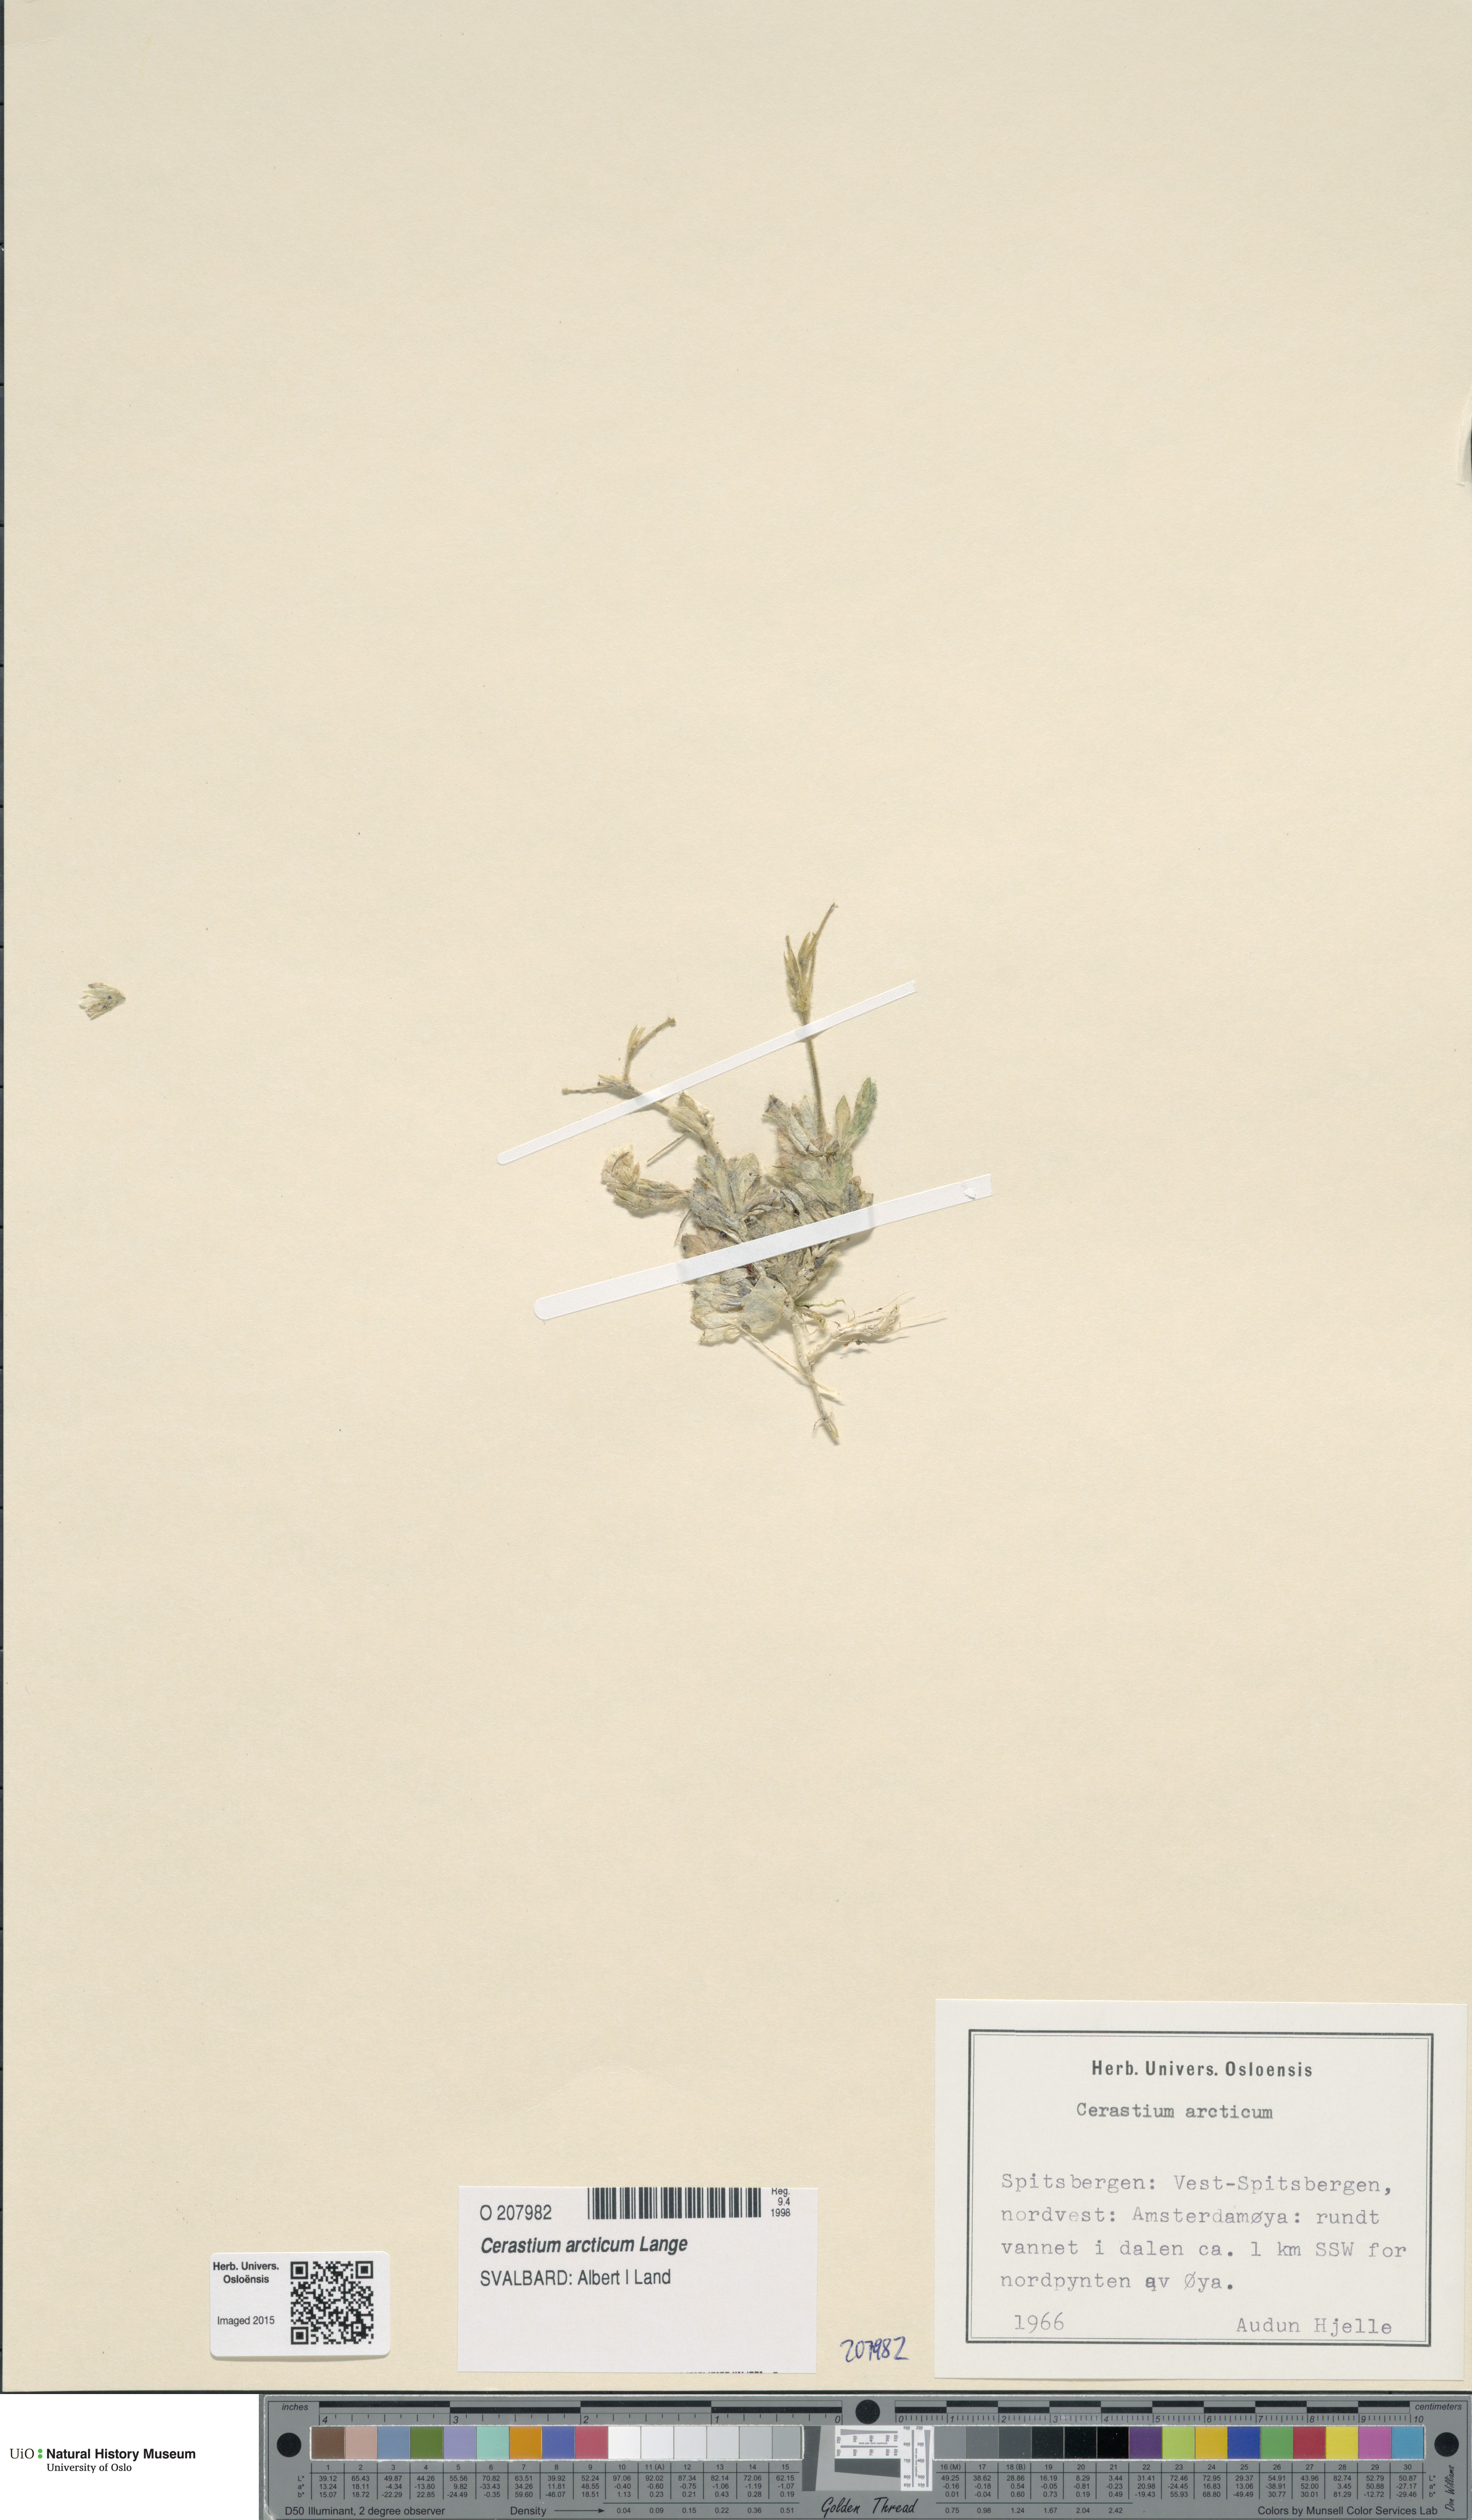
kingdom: Plantae
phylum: Tracheophyta
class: Magnoliopsida
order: Caryophyllales
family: Caryophyllaceae
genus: Cerastium
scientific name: Cerastium arcticum
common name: Arctic mouse-ear
